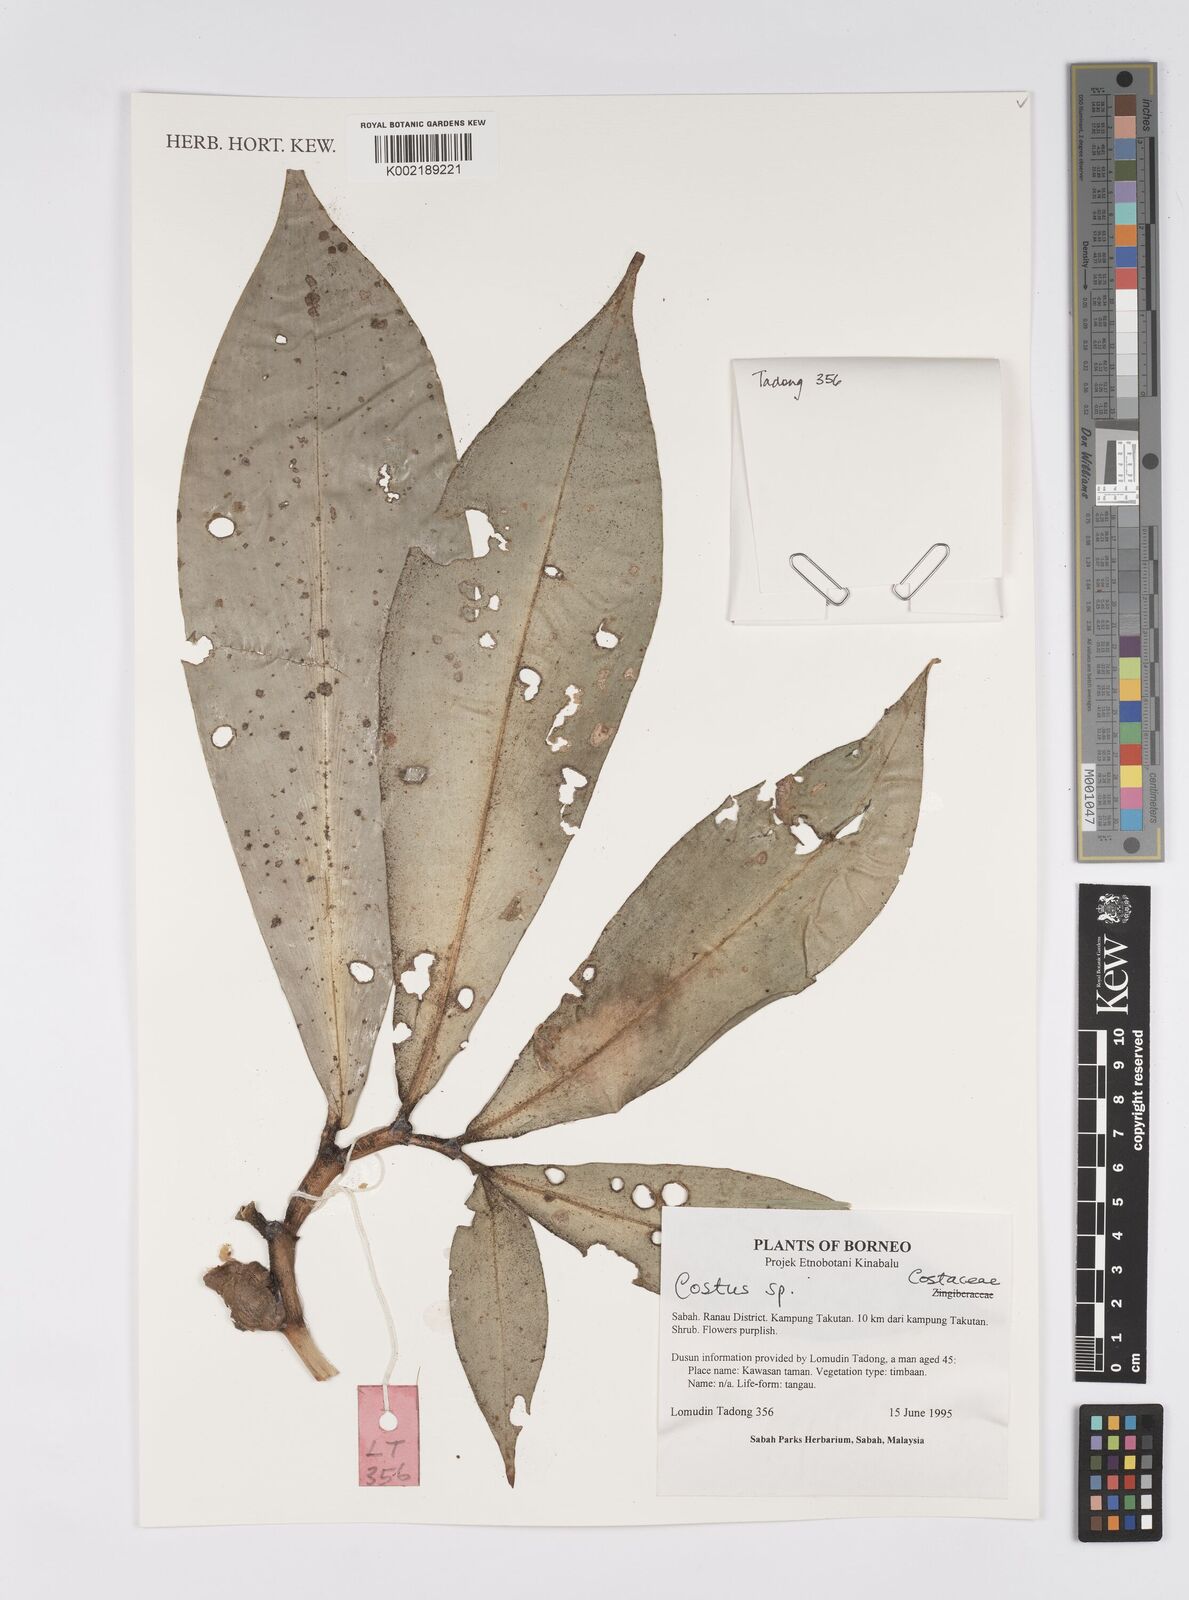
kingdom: Plantae
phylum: Tracheophyta
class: Liliopsida
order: Zingiberales
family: Costaceae
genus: Costus
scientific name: Costus
